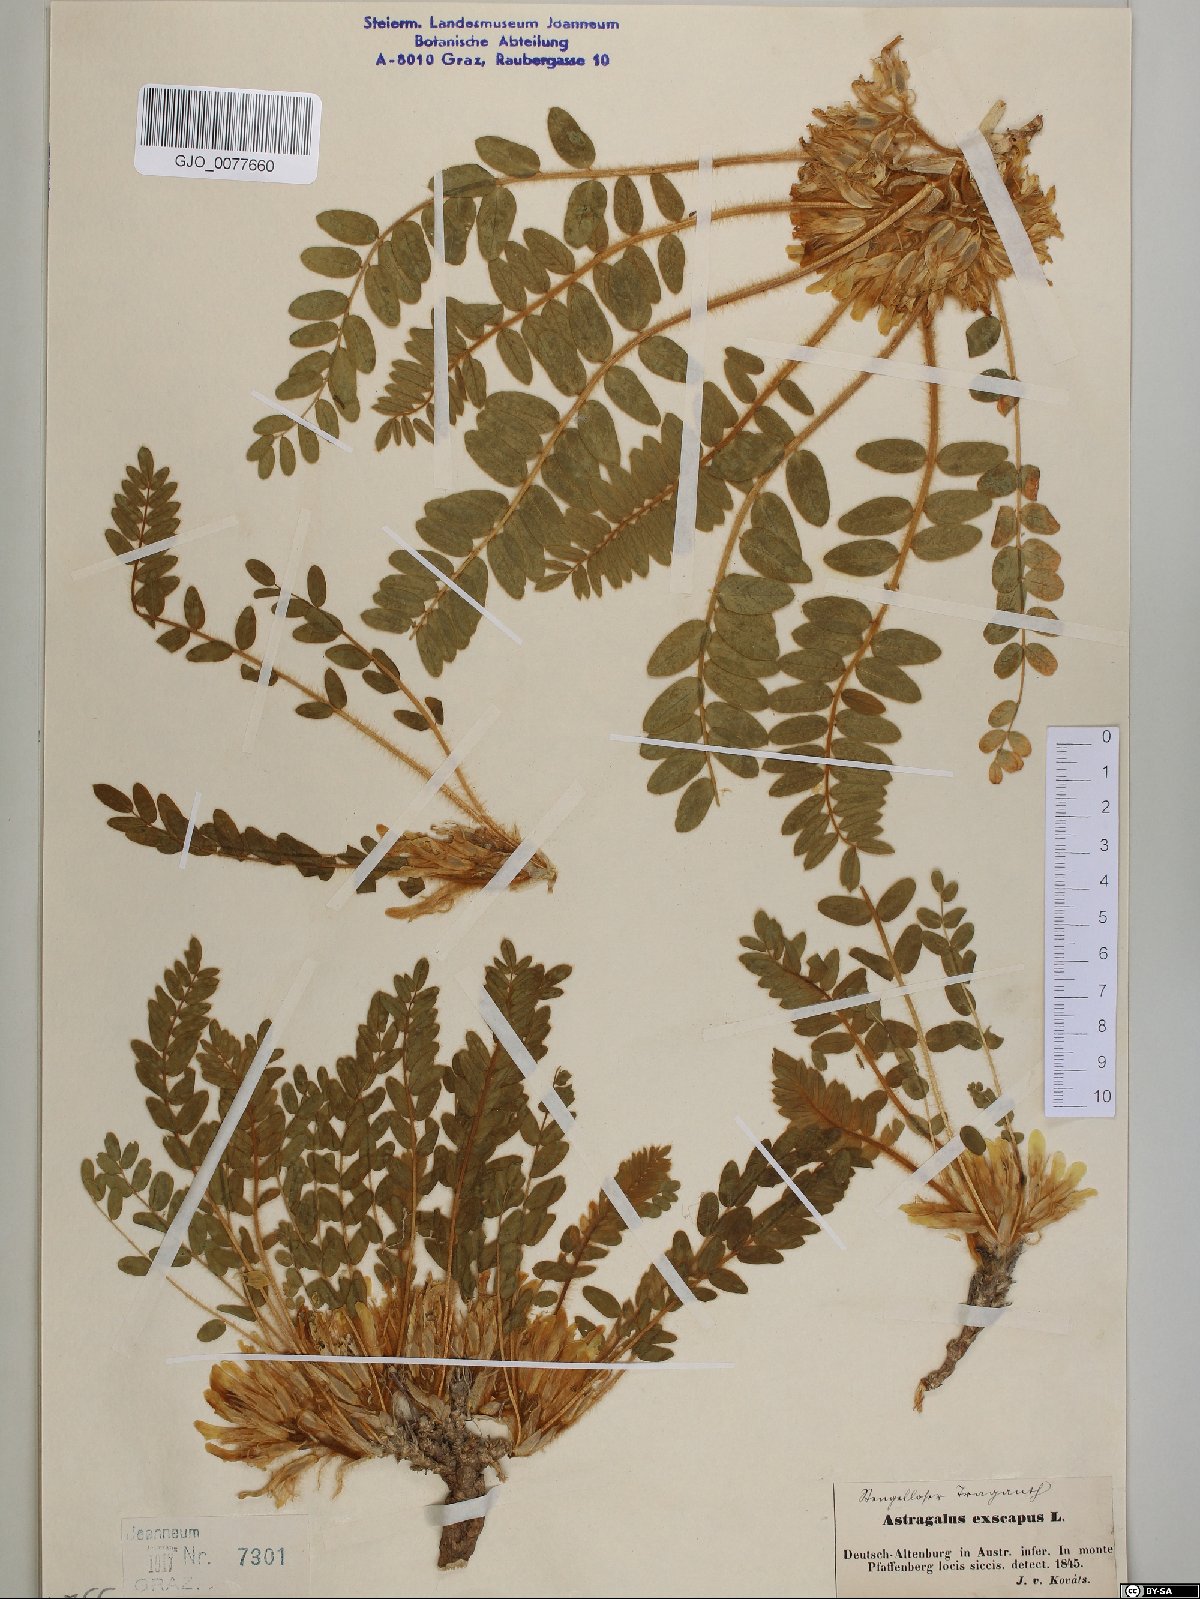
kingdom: Plantae
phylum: Tracheophyta
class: Magnoliopsida
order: Fabales
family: Fabaceae
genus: Astragalus
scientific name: Astragalus exscapus
